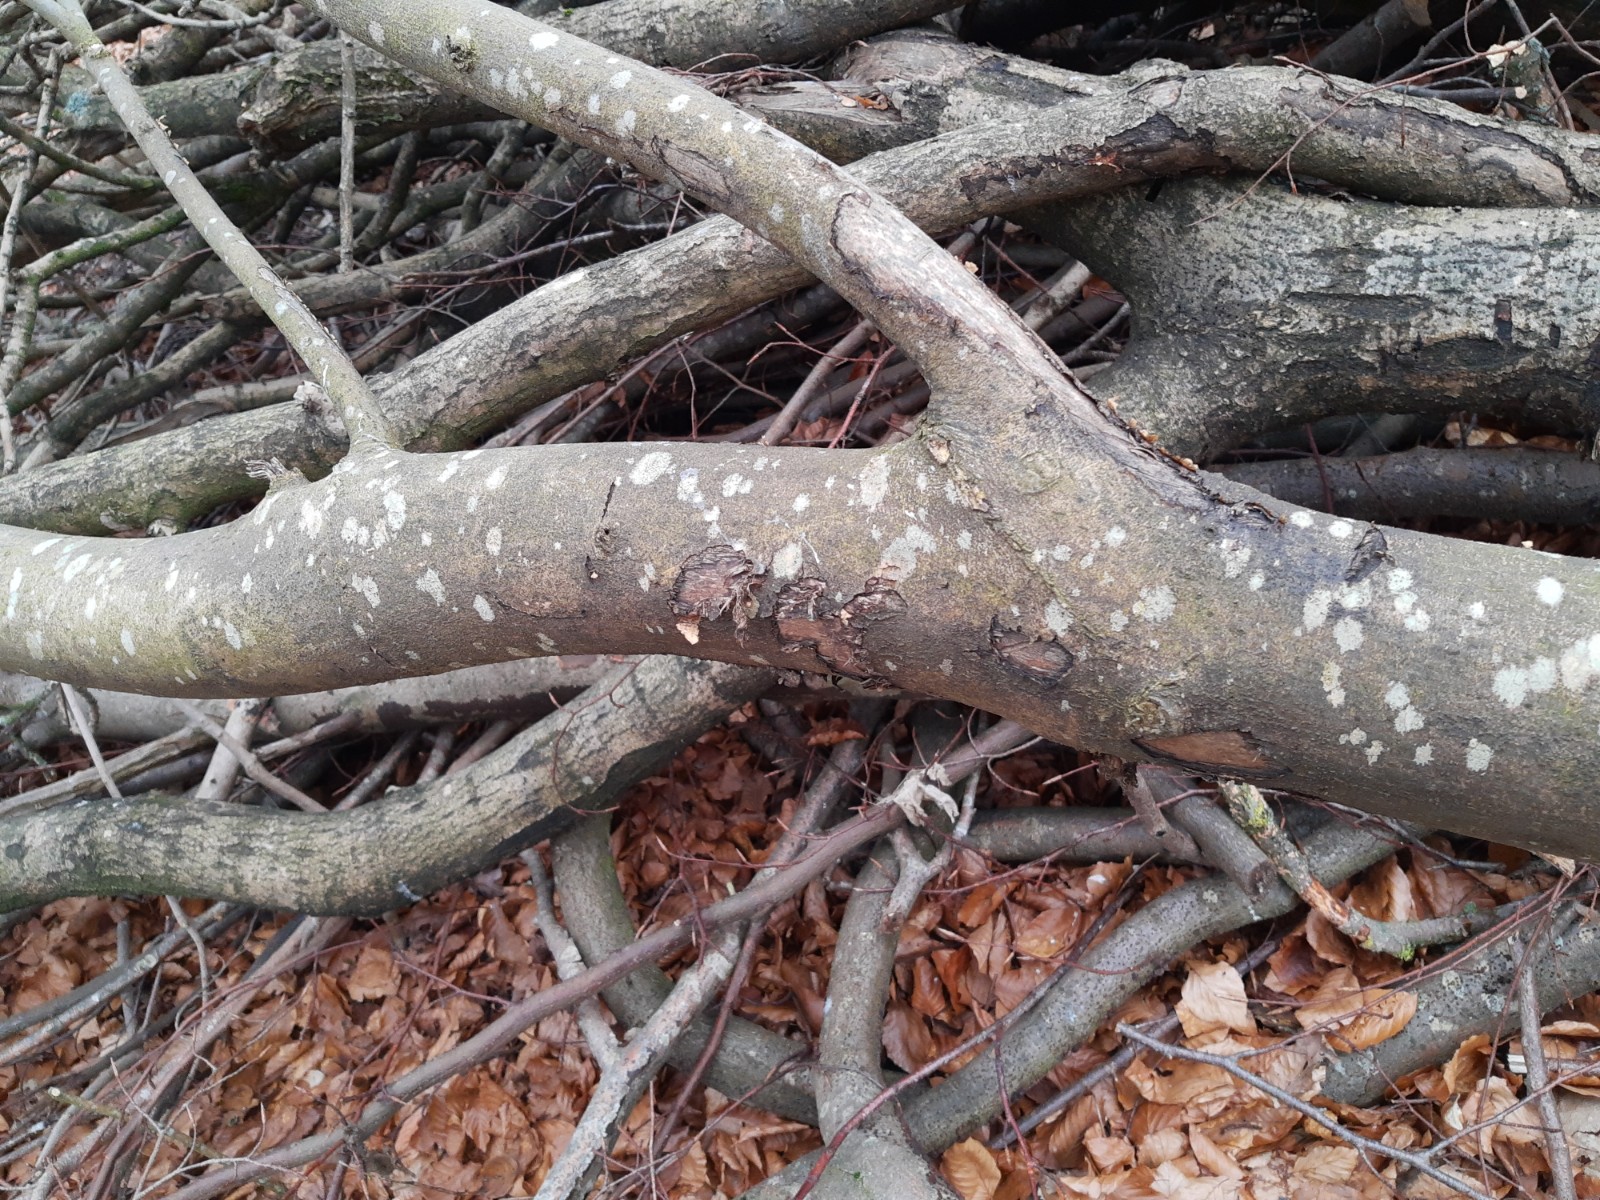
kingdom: Fungi
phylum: Ascomycota
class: Leotiomycetes
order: Helotiales
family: Sclerotiniaceae
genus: Sclerencoelia
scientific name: Sclerencoelia fraxinicola
